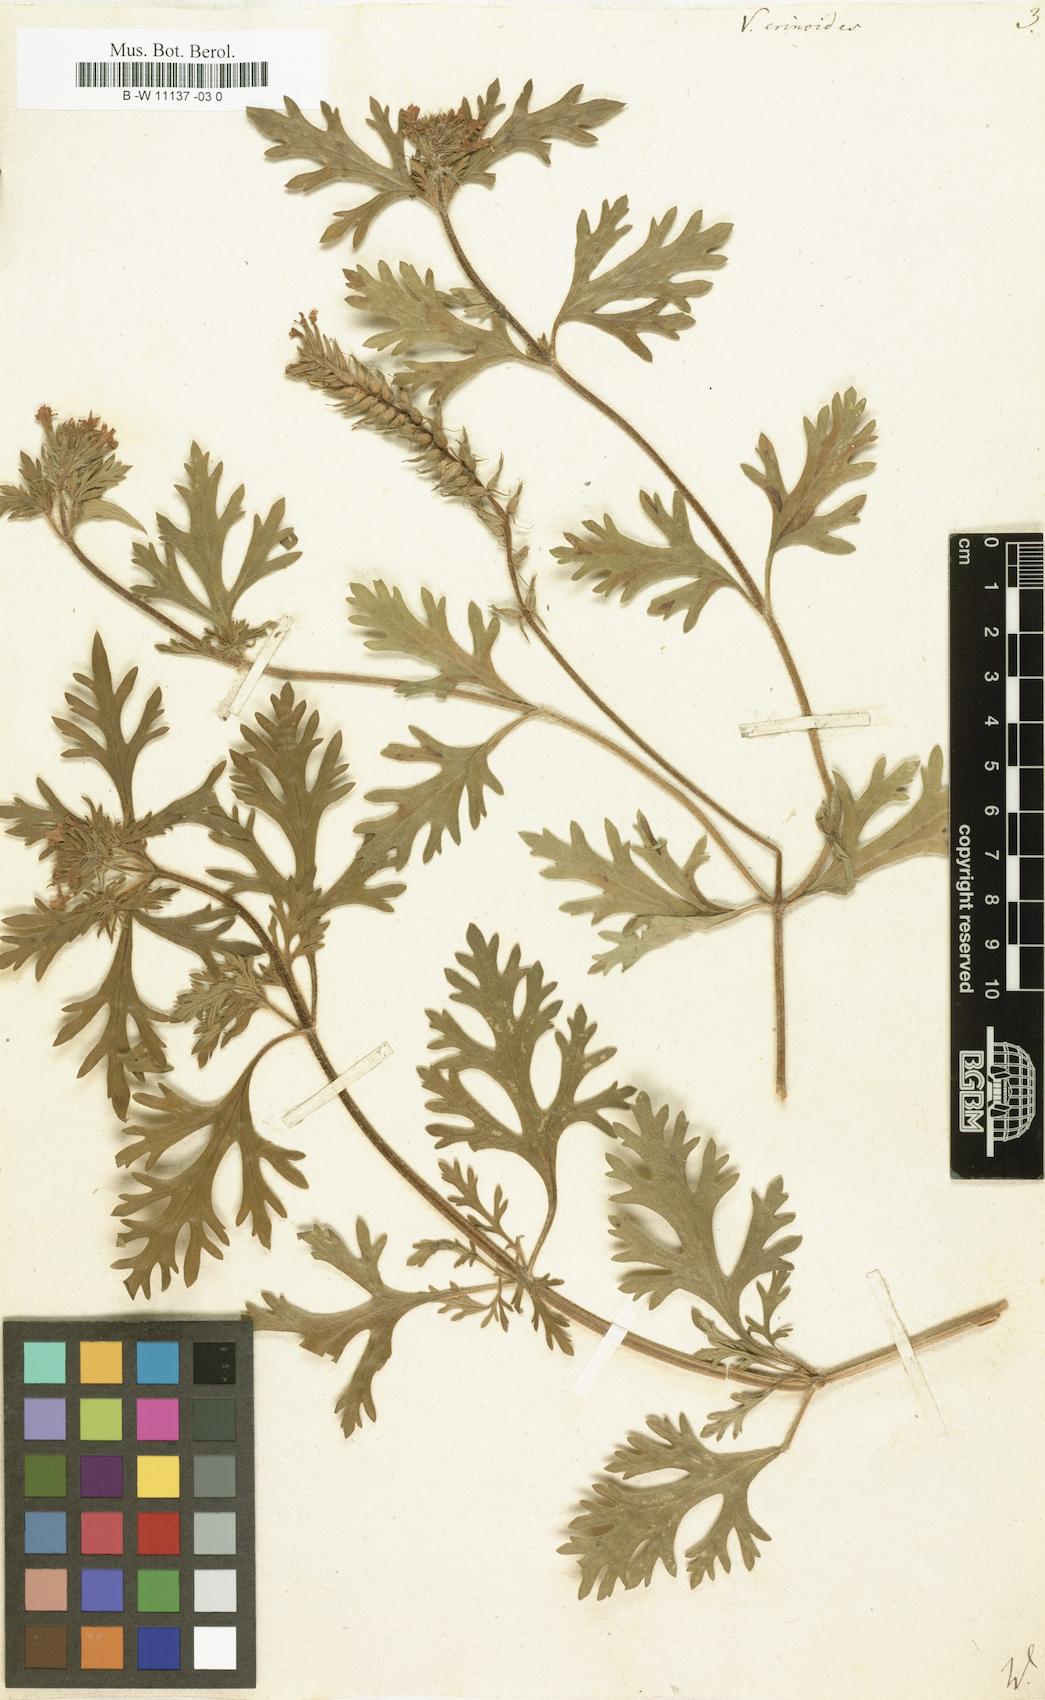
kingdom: Plantae
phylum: Tracheophyta
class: Magnoliopsida
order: Lamiales
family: Verbenaceae
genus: Verbena
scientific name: Verbena
